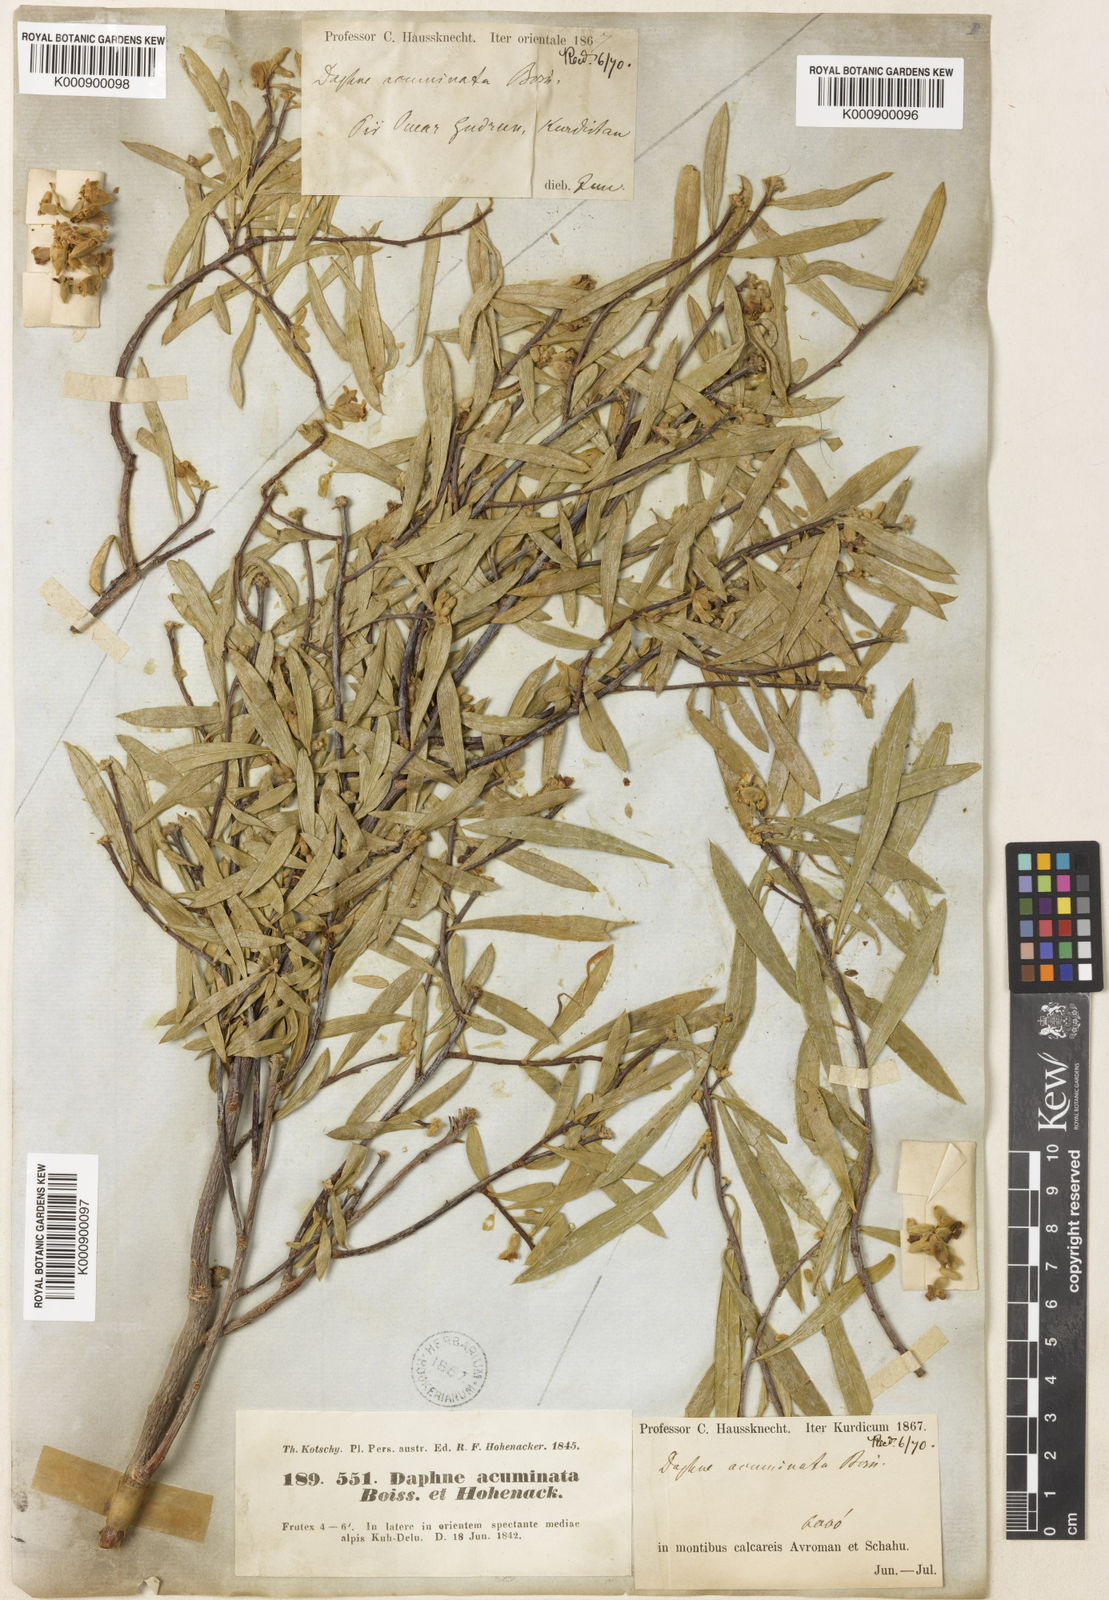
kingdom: Plantae
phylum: Tracheophyta
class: Magnoliopsida
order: Malvales
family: Thymelaeaceae
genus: Daphne
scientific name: Daphne
